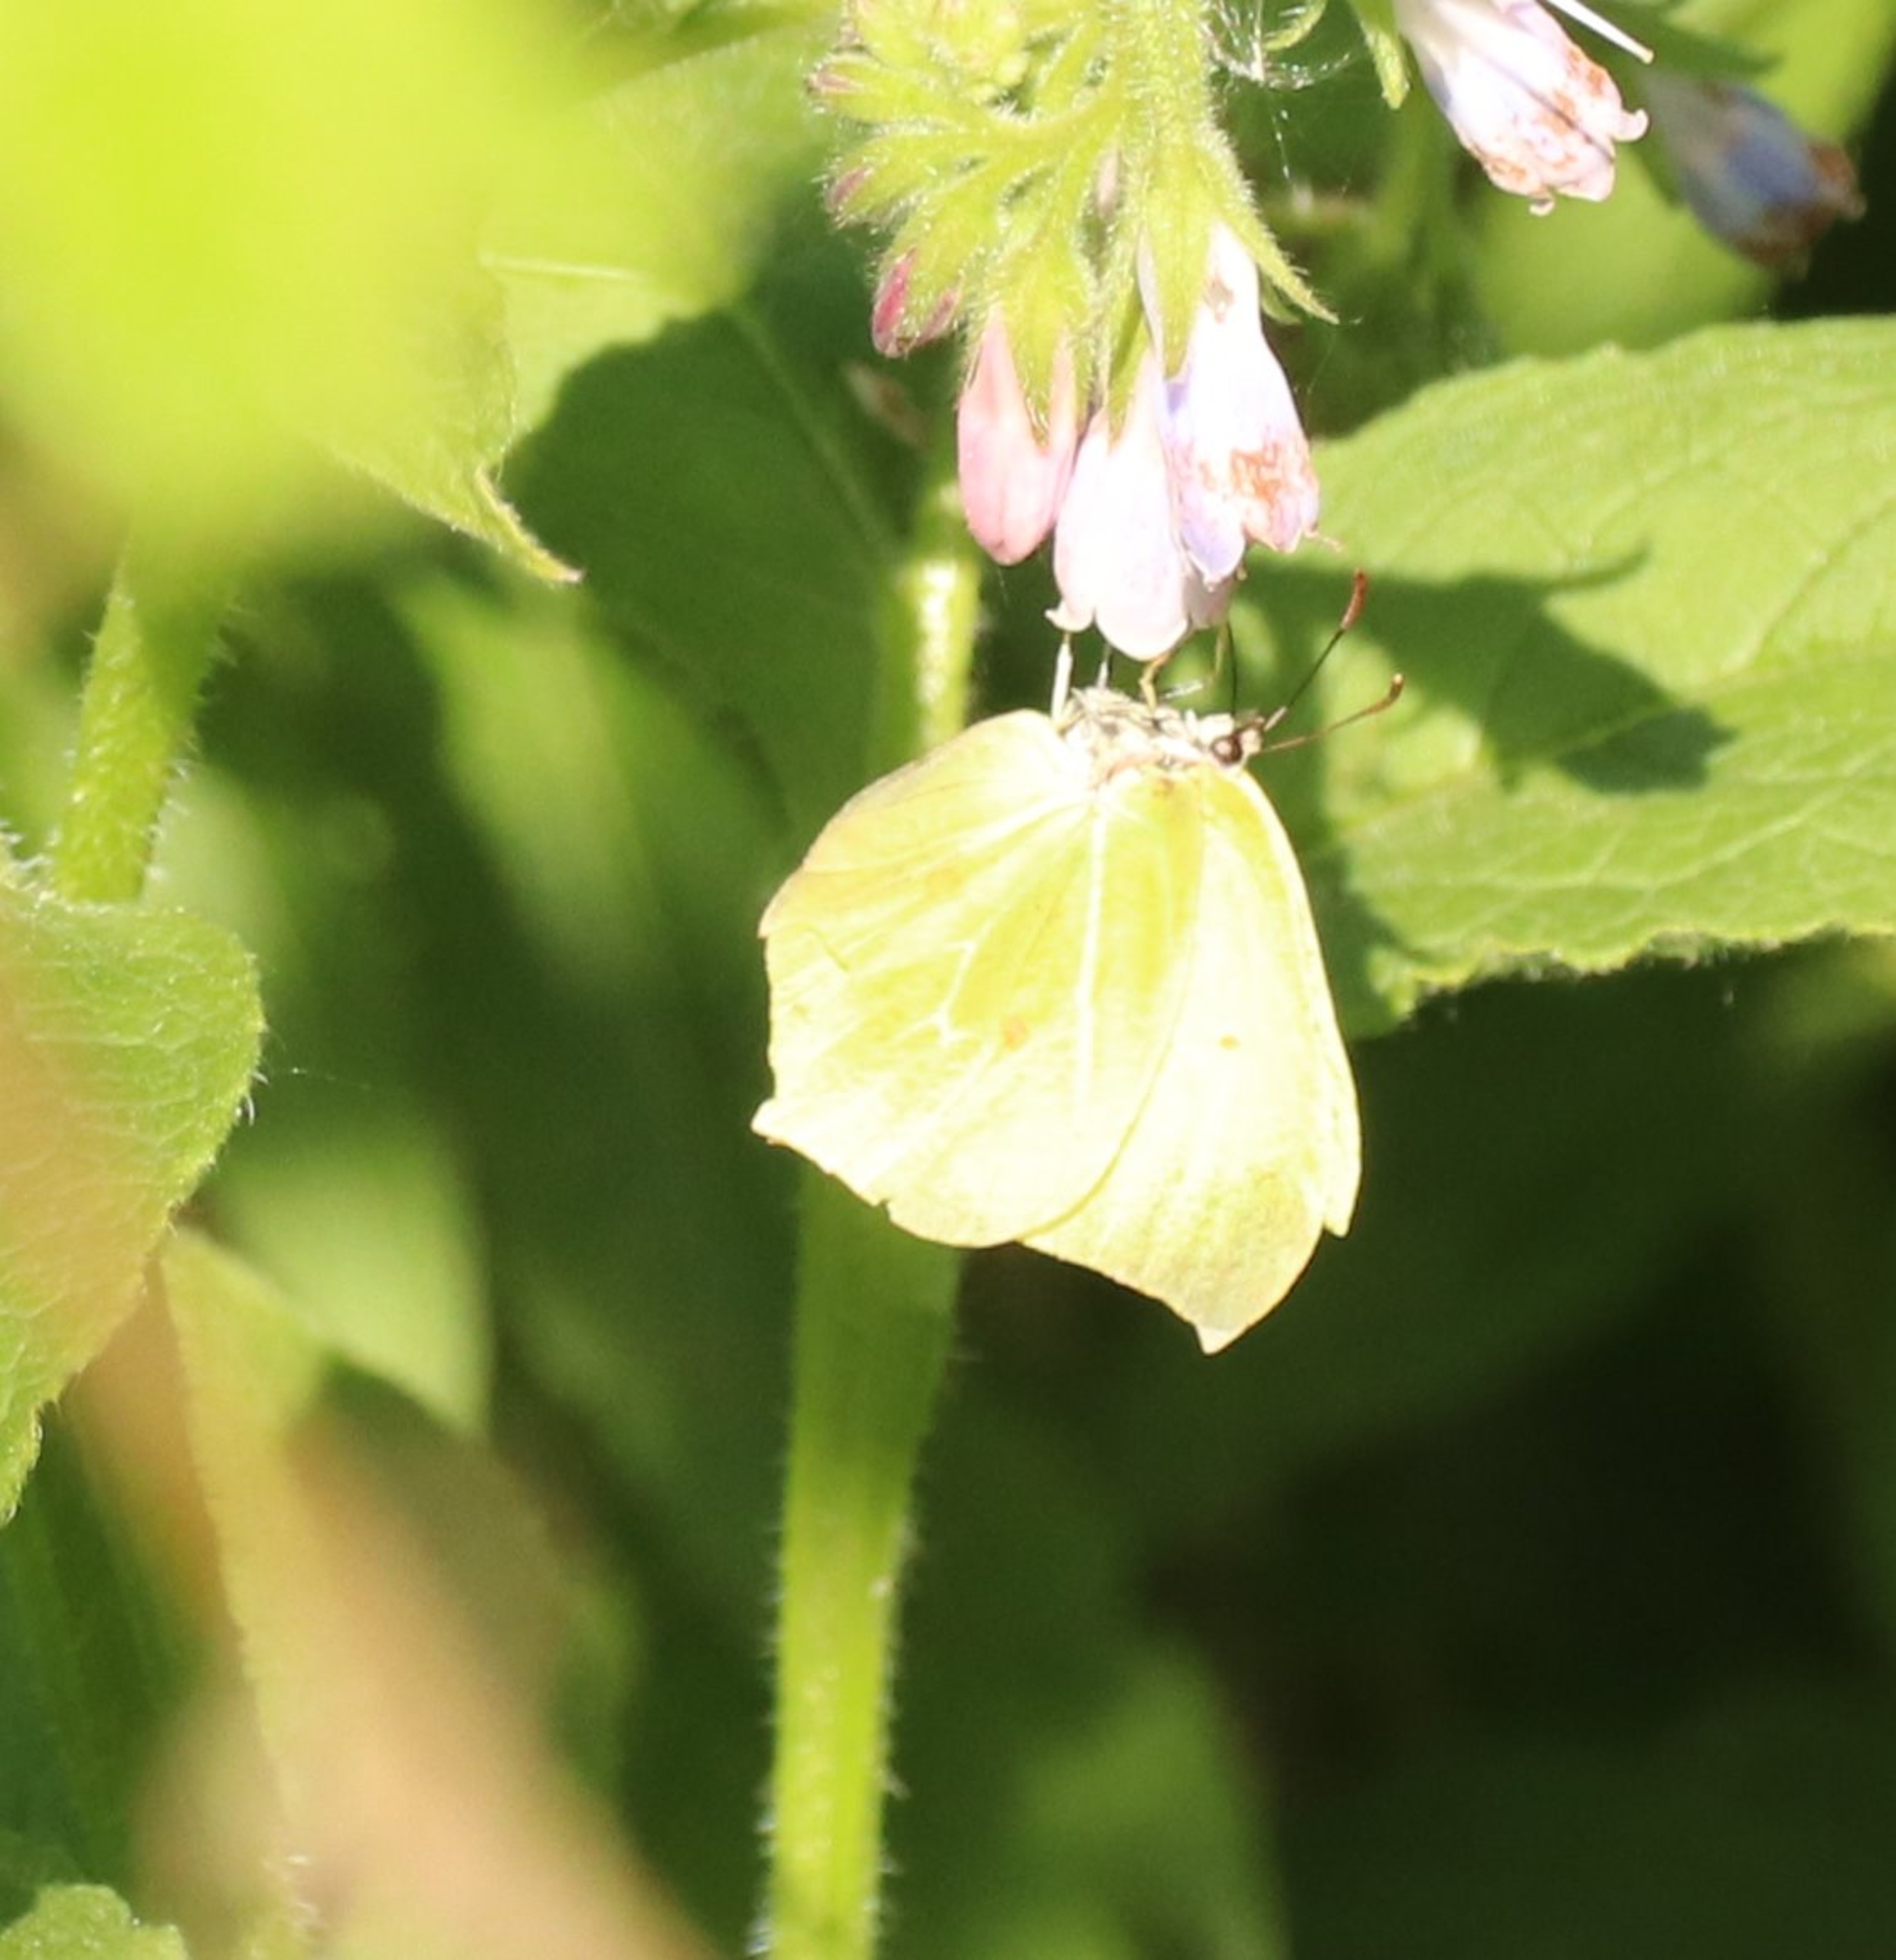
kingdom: Animalia
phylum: Arthropoda
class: Insecta
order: Lepidoptera
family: Pieridae
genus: Gonepteryx
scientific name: Gonepteryx rhamni
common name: Citronsommerfugl
